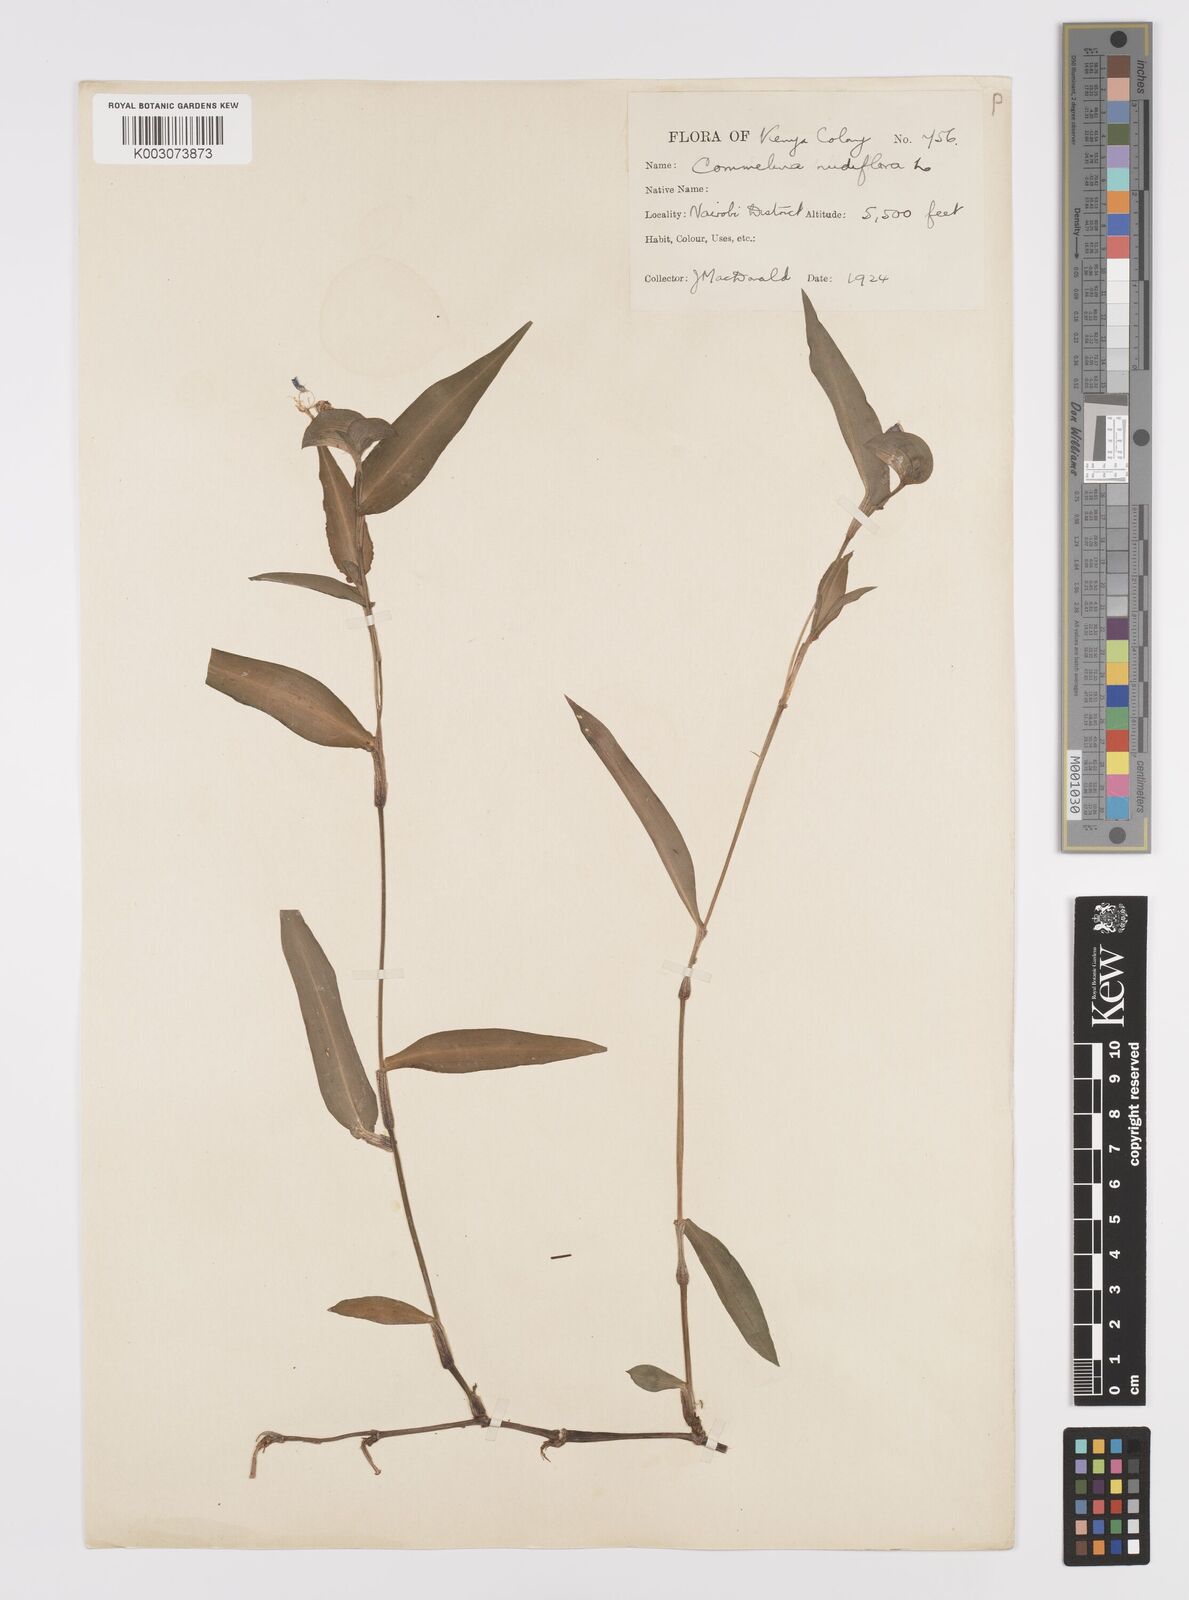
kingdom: Plantae
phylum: Tracheophyta
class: Liliopsida
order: Commelinales
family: Commelinaceae
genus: Commelina
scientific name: Commelina latifolia
